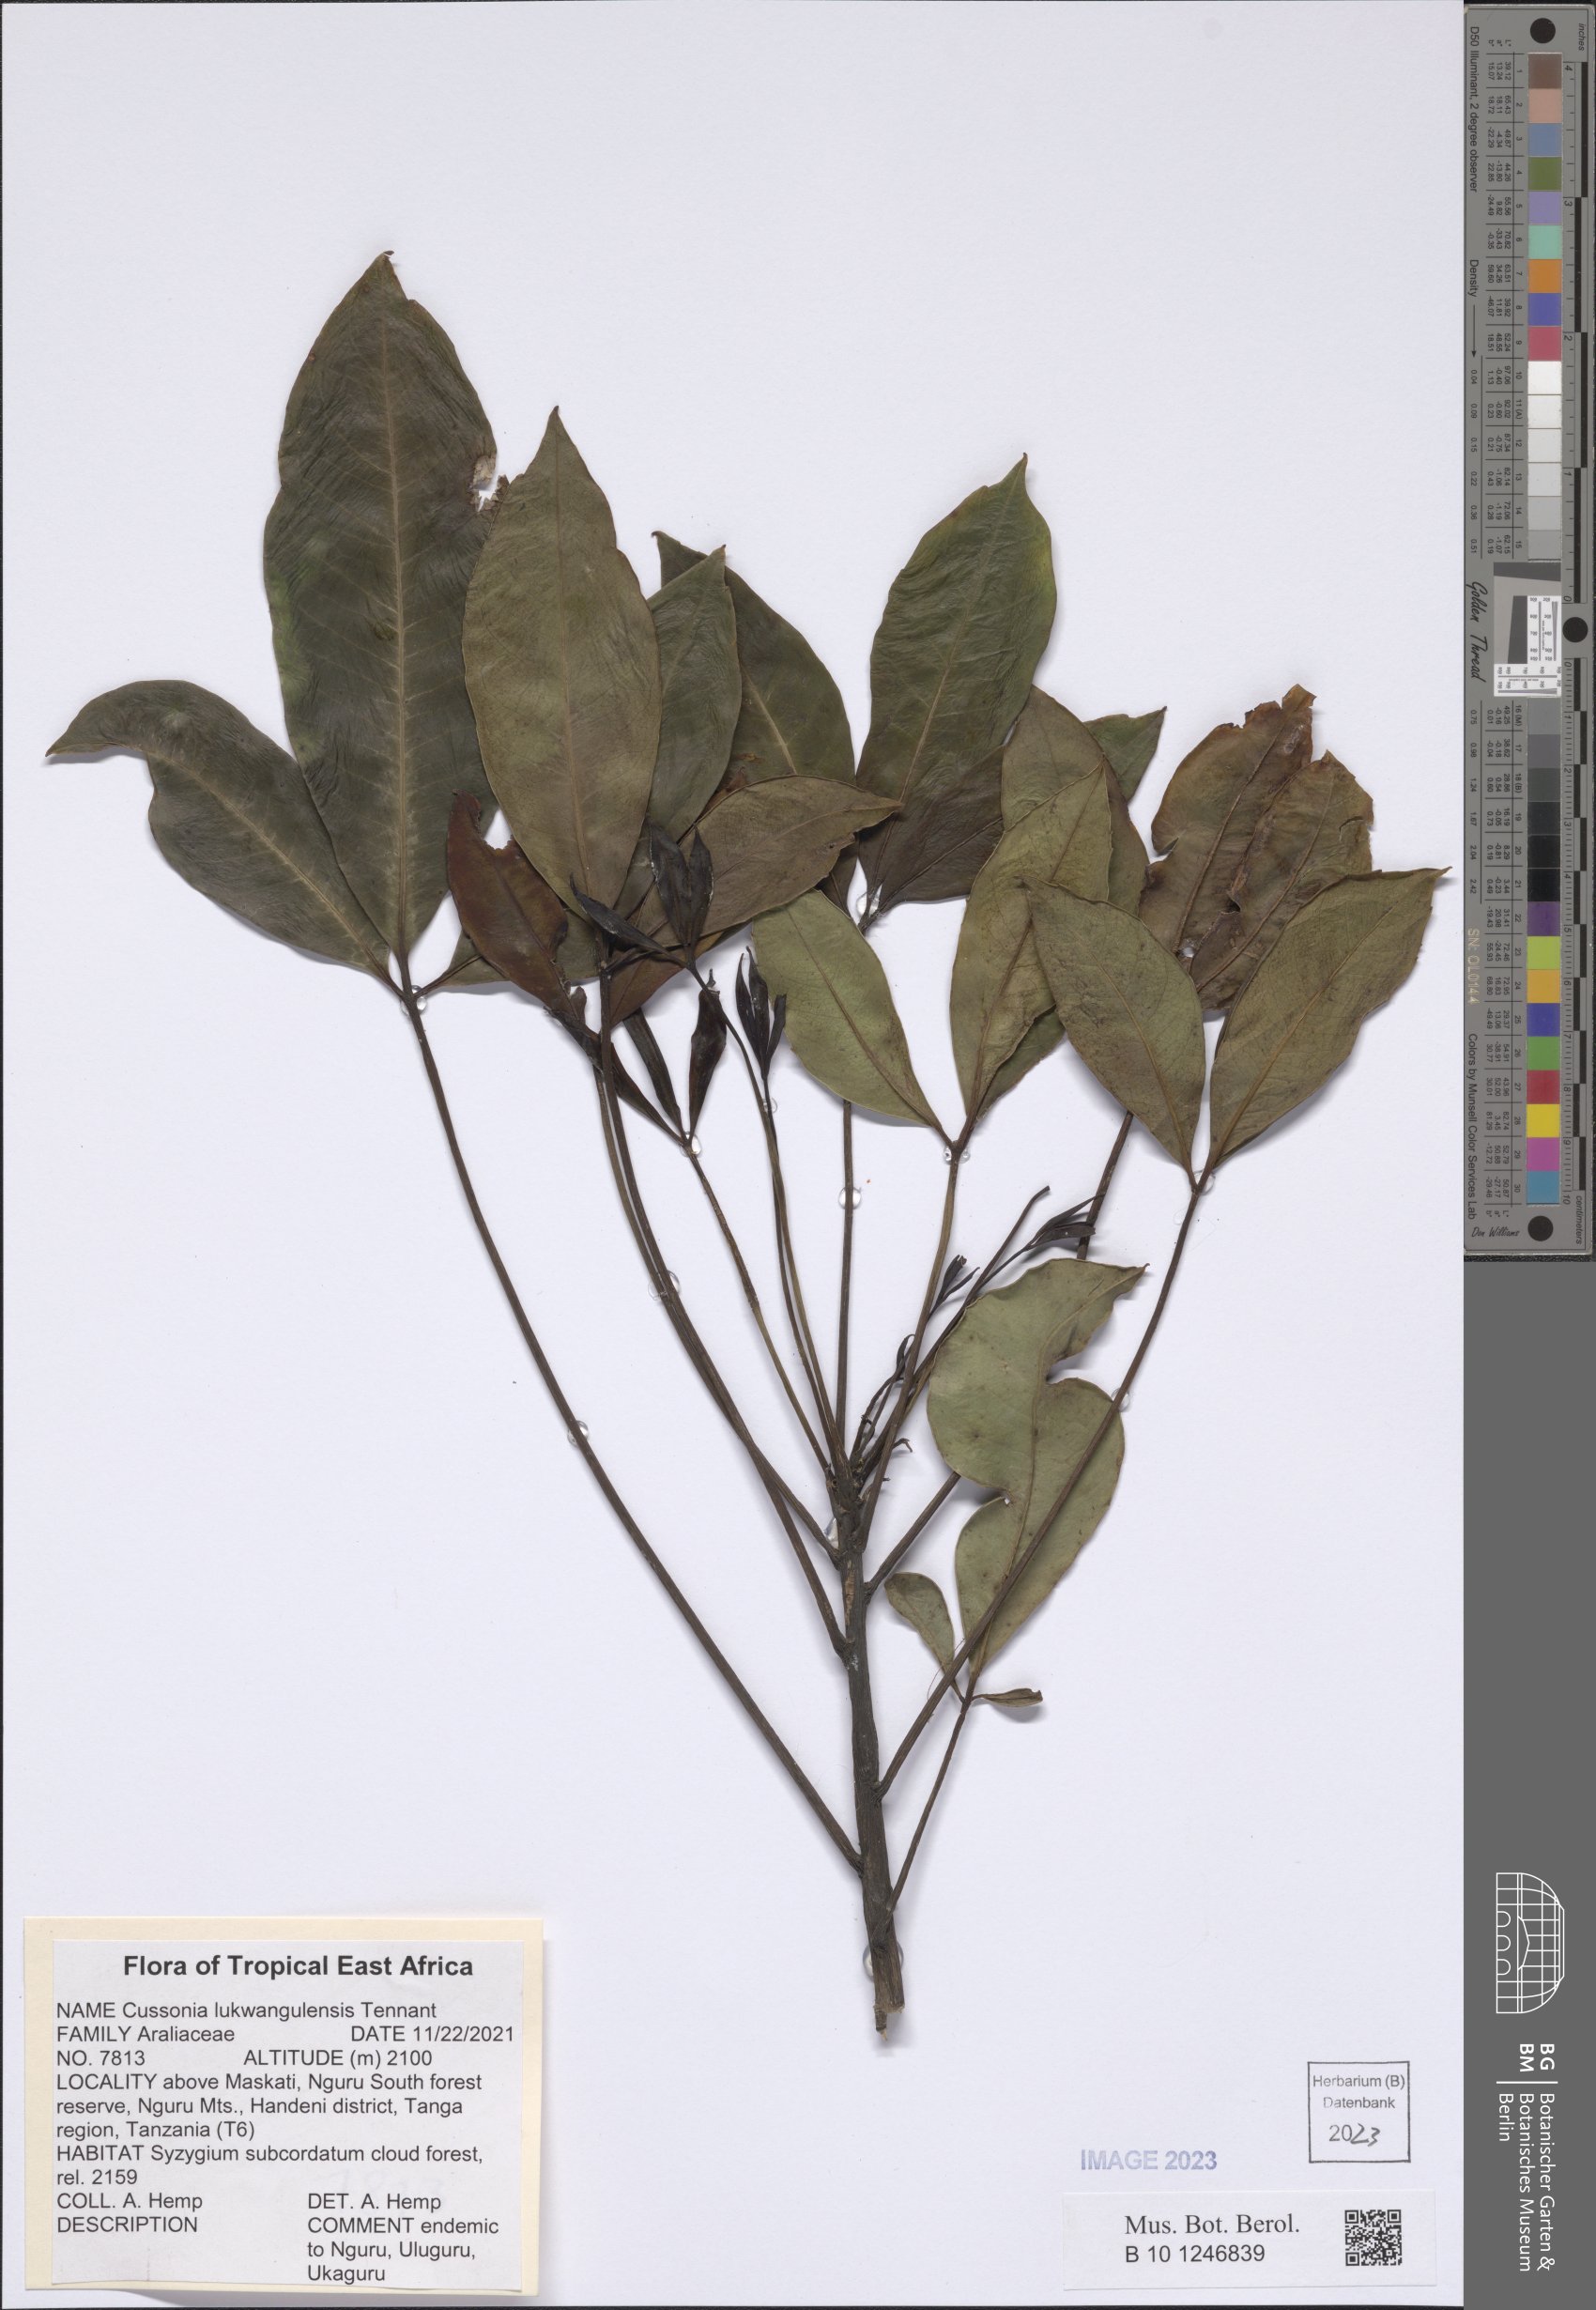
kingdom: Plantae
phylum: Tracheophyta
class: Magnoliopsida
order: Apiales
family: Araliaceae
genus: Neocussonia
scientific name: Neocussonia lukwangulensis
